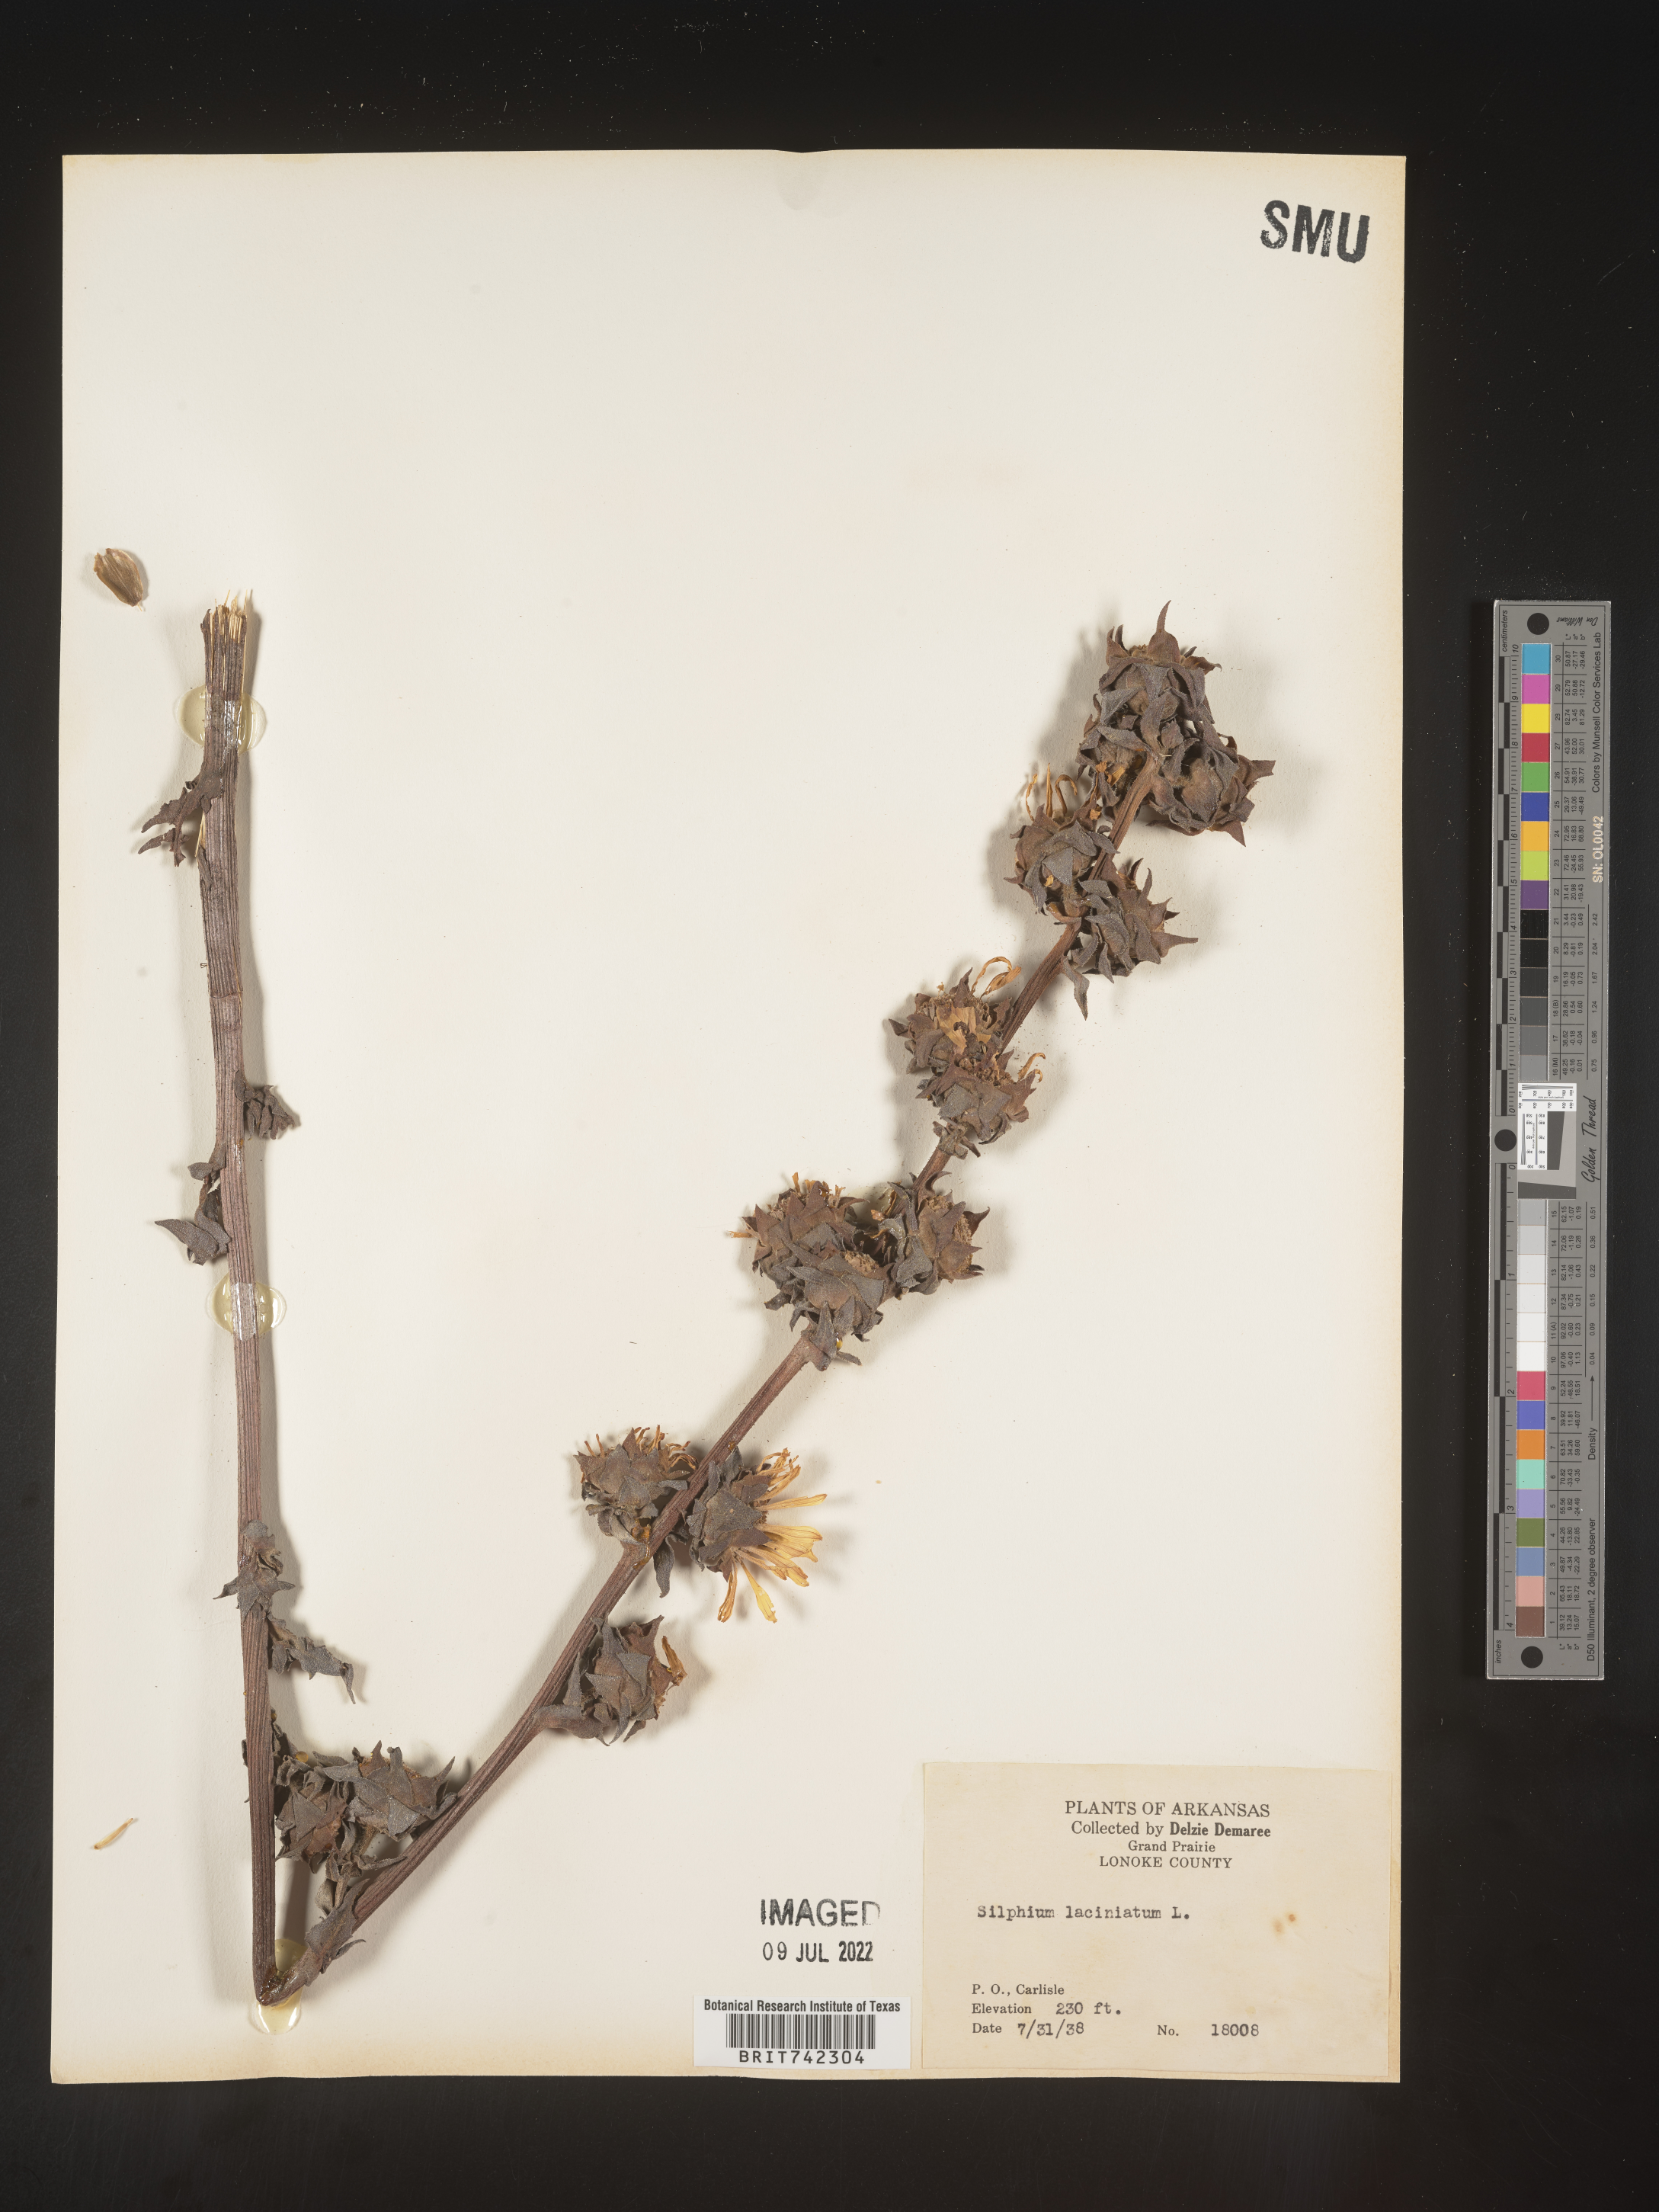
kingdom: Plantae
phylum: Tracheophyta
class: Magnoliopsida
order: Asterales
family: Asteraceae
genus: Silphium
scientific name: Silphium laciniatum
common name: Polarplant
